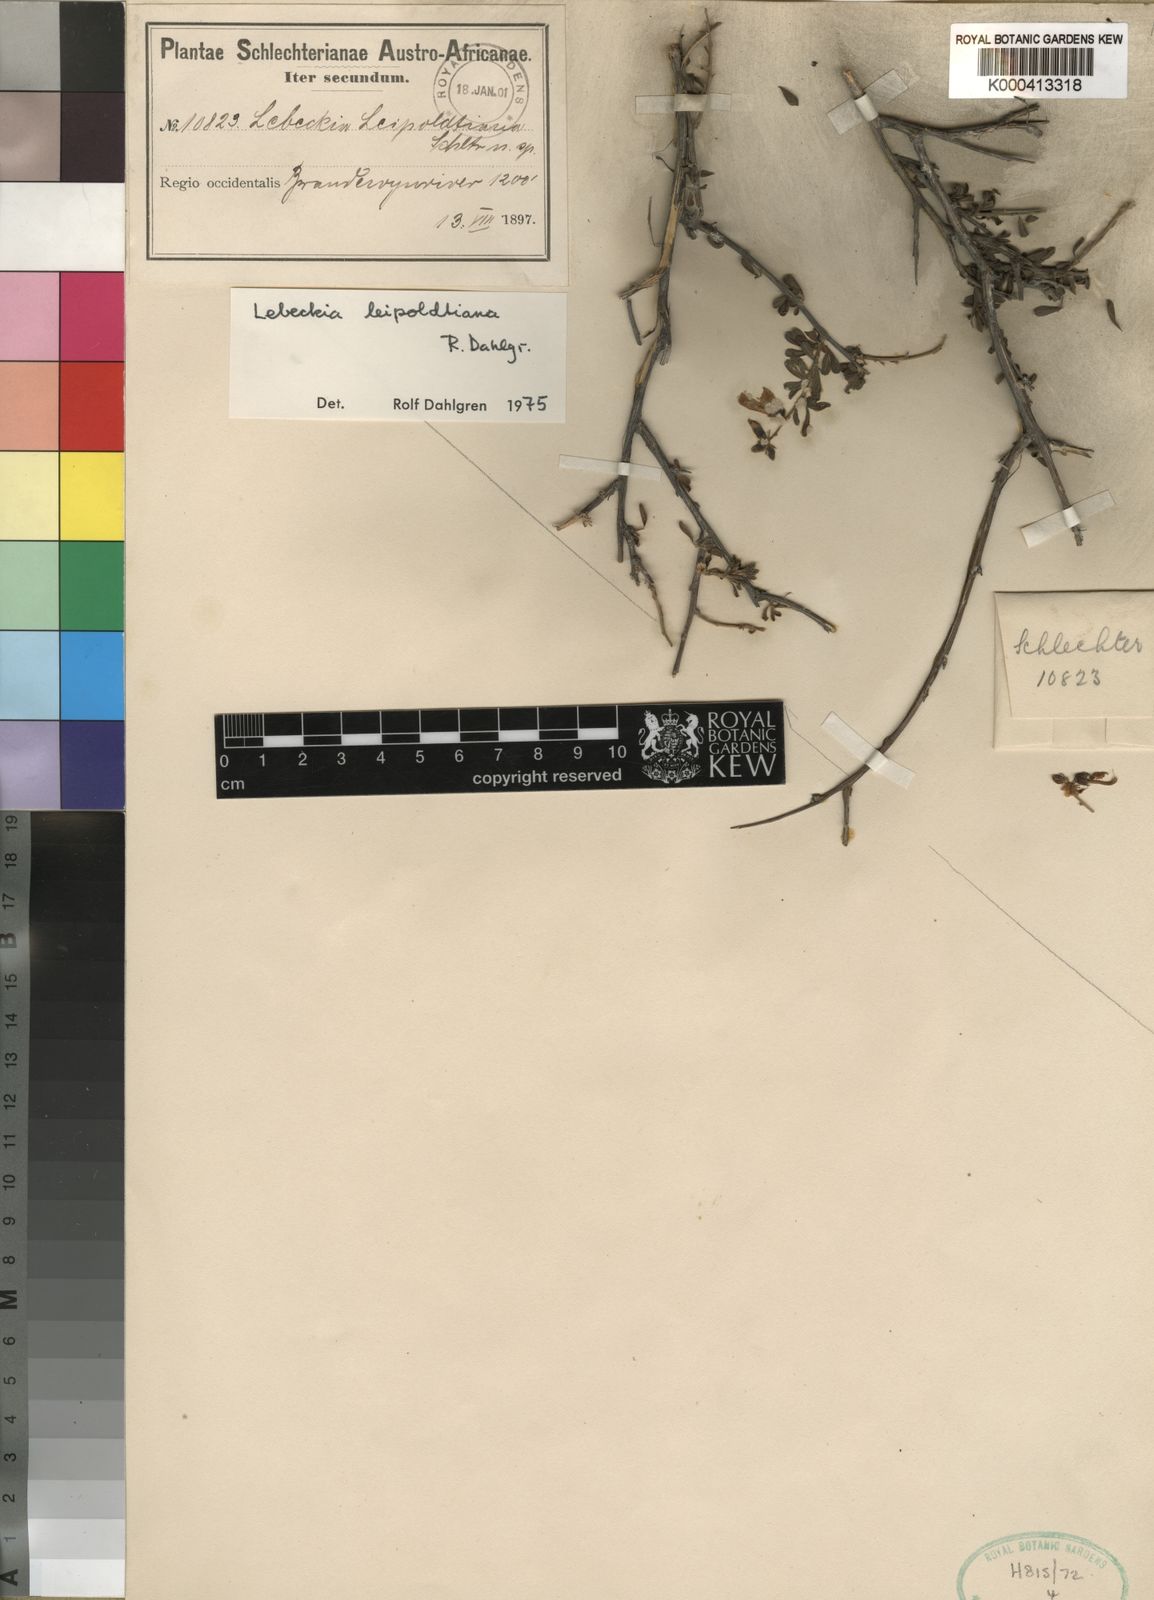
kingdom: Plantae
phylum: Tracheophyta
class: Magnoliopsida
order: Fabales
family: Fabaceae
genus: Wiborgiella
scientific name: Wiborgiella leipoldtiana
